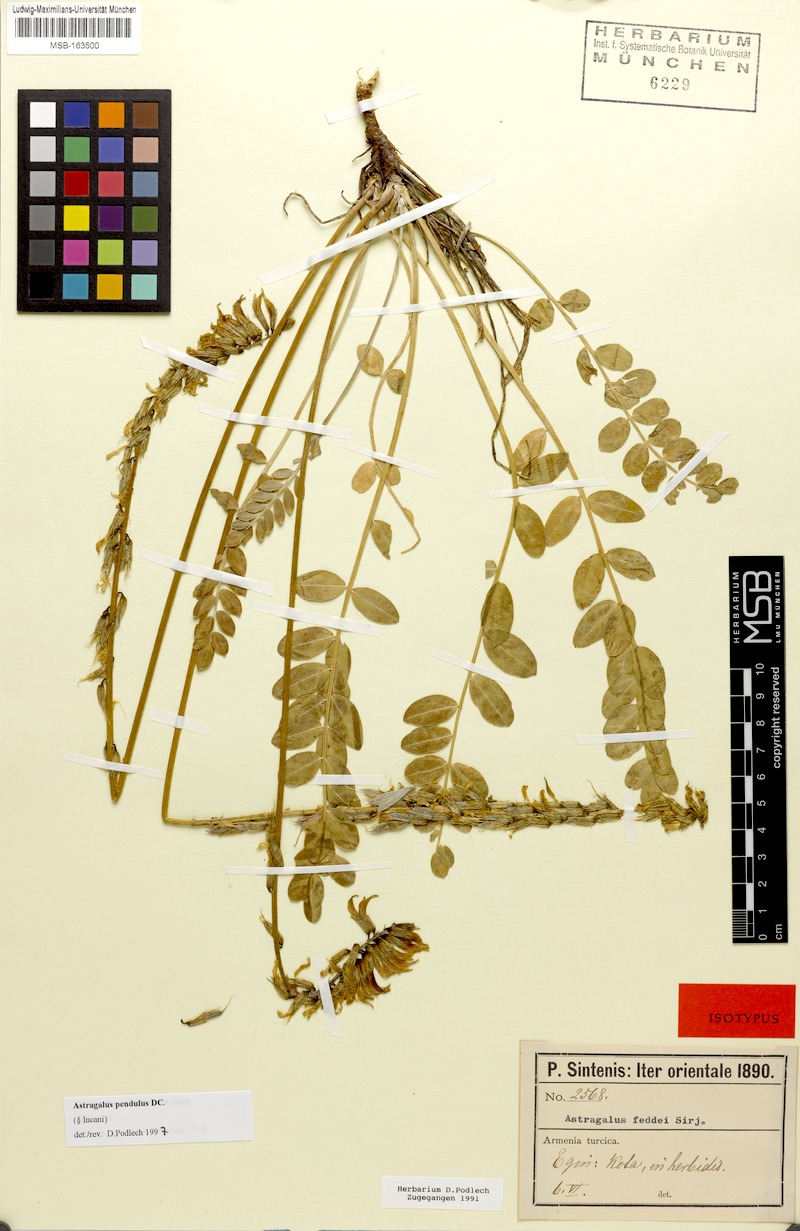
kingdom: Plantae
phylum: Tracheophyta
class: Magnoliopsida
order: Fabales
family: Fabaceae
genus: Astragalus
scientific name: Astragalus pendulus
